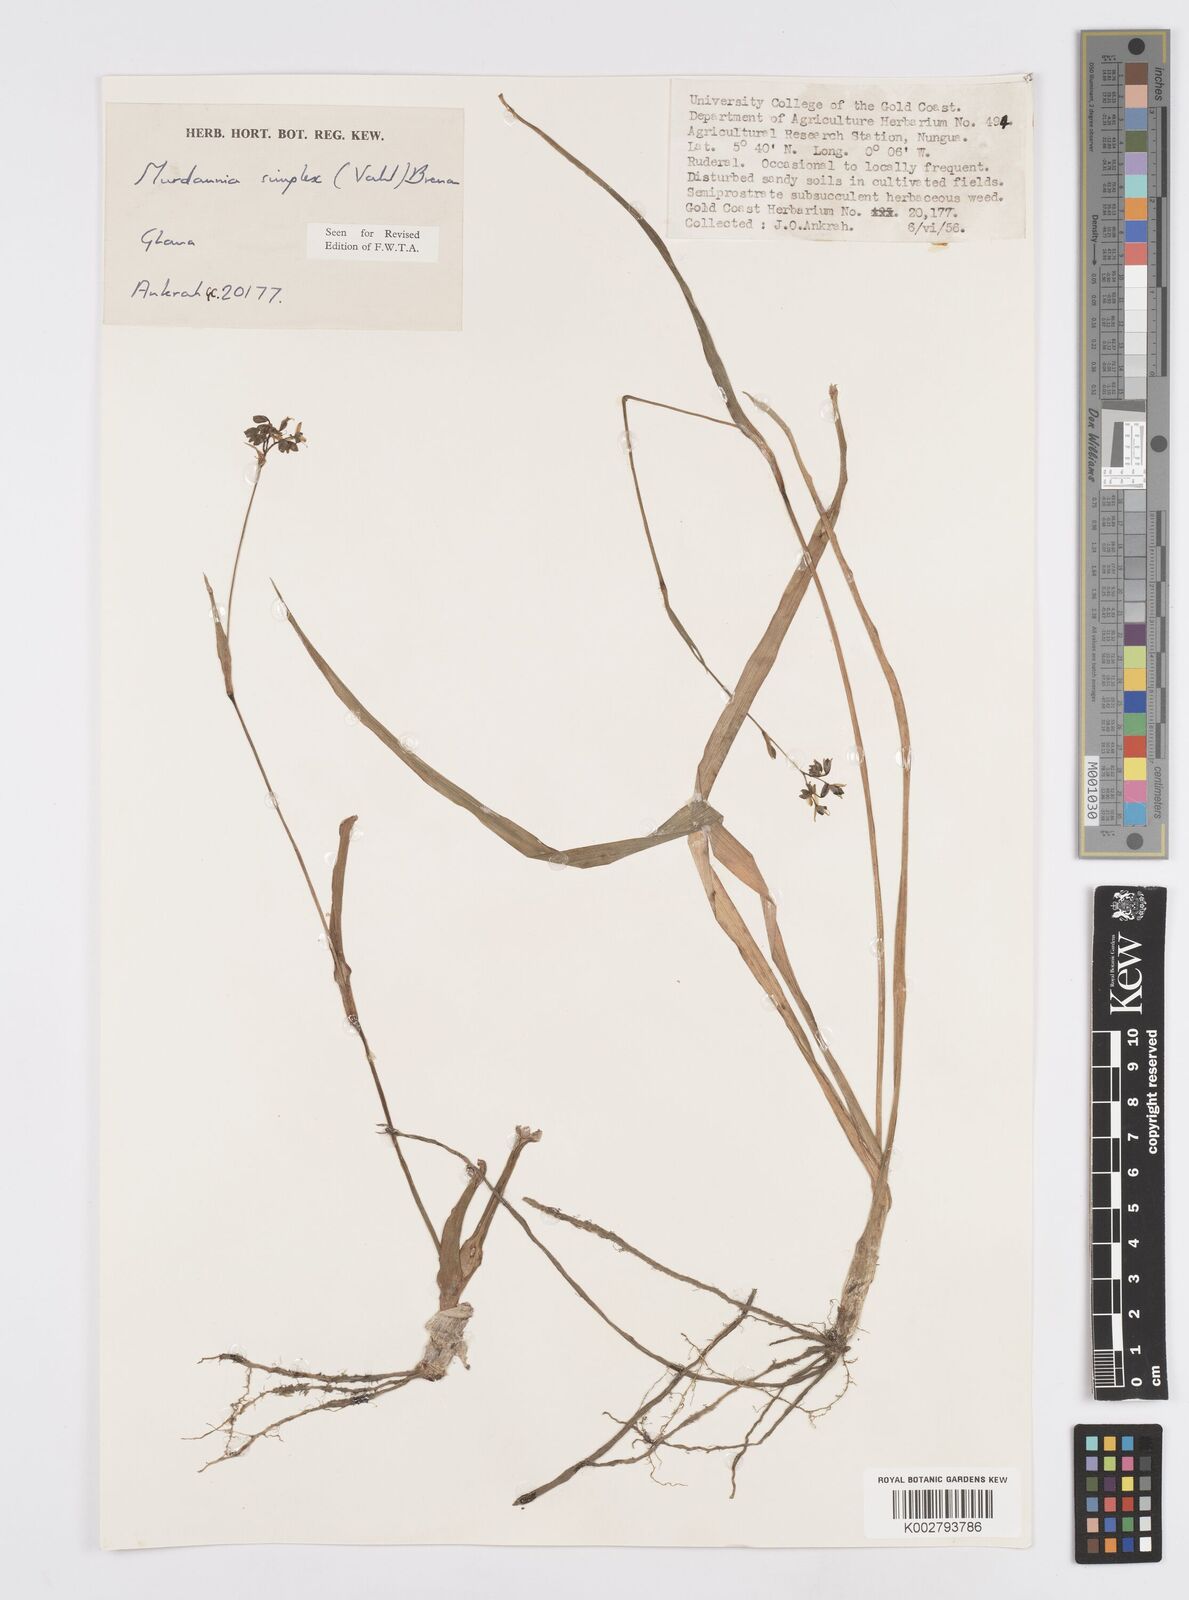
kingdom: Plantae
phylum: Tracheophyta
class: Liliopsida
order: Commelinales
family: Commelinaceae
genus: Murdannia
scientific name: Murdannia simplex
